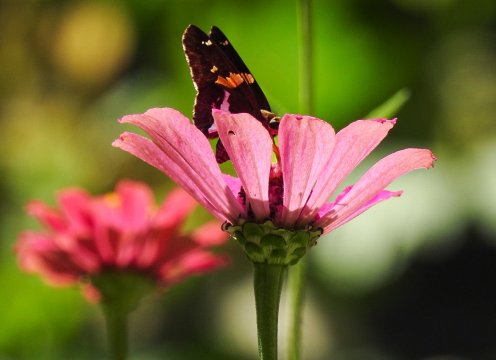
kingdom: Animalia
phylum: Arthropoda
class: Insecta
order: Lepidoptera
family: Hesperiidae
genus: Epargyreus
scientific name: Epargyreus clarus
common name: Silver-spotted Skipper
